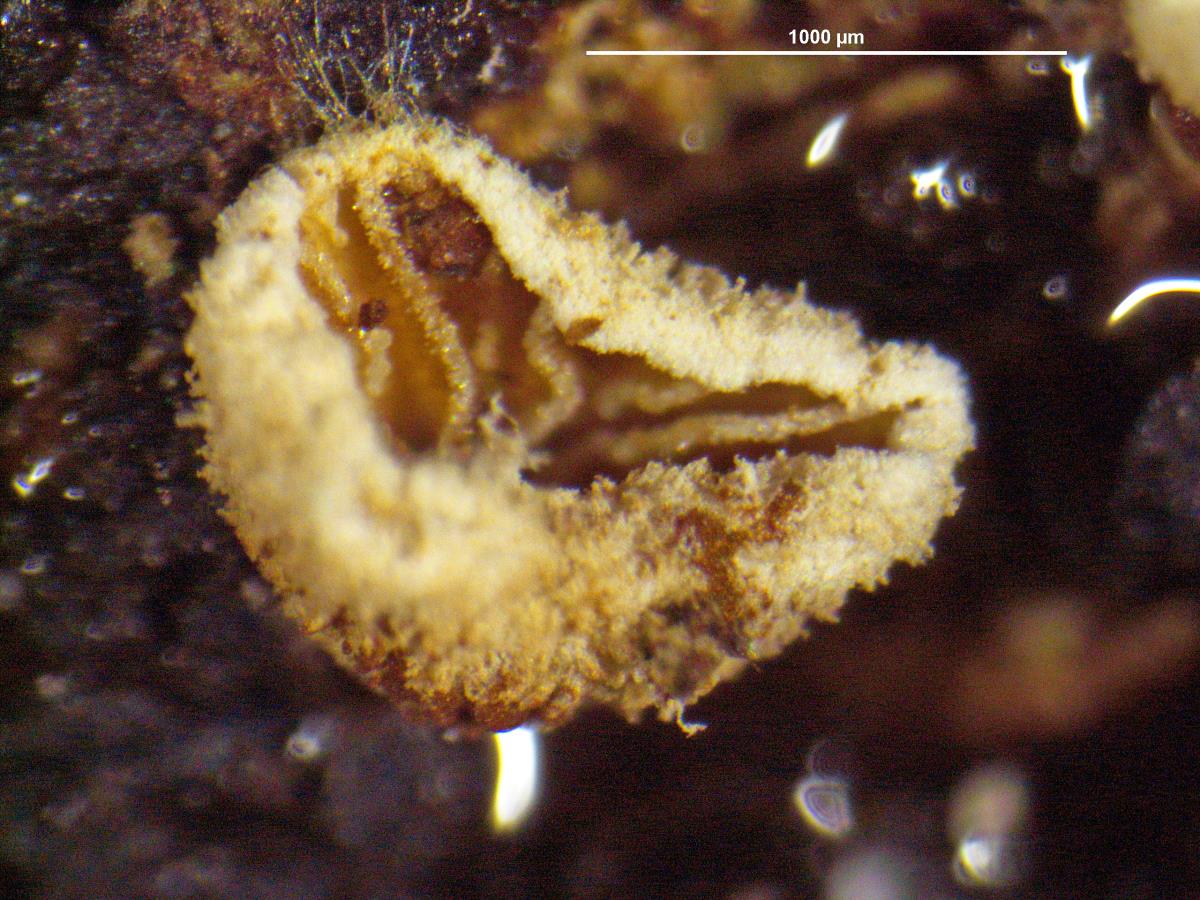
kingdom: Fungi
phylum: Basidiomycota
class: Agaricomycetes
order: Agaricales
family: Chromocyphellaceae
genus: Phaeosolenia
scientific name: Phaeosolenia densa
